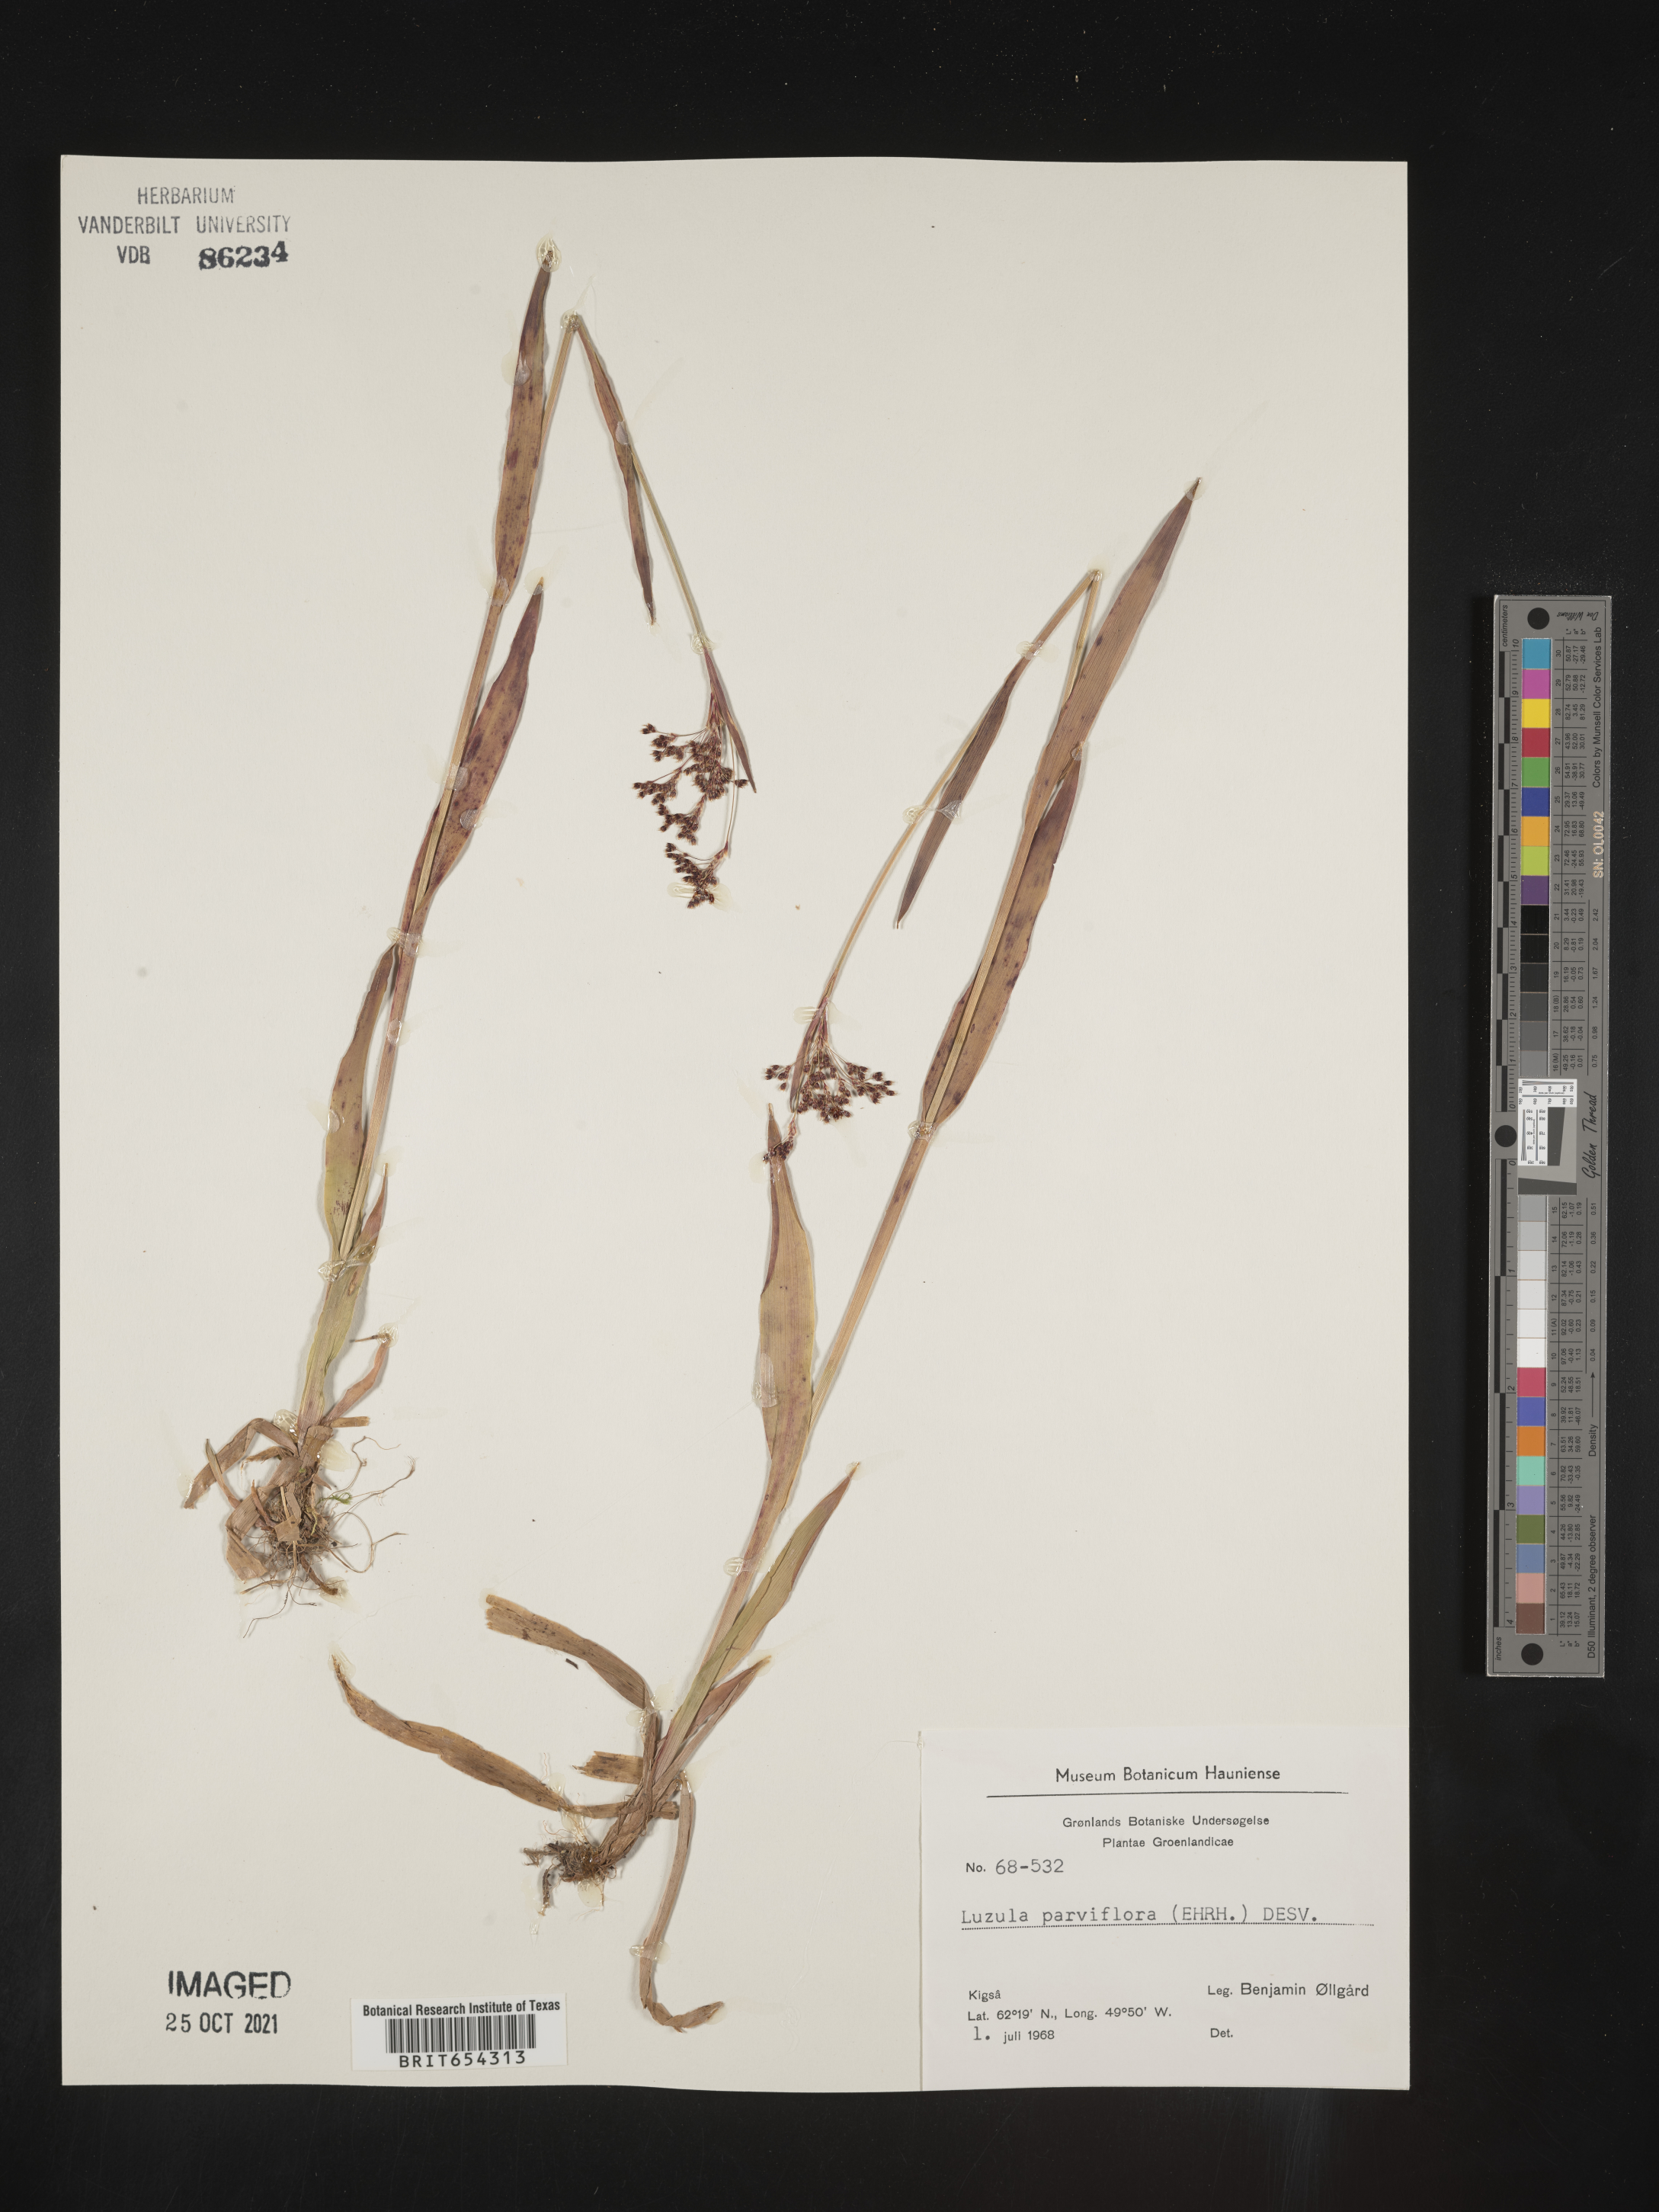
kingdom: Plantae
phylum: Tracheophyta
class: Liliopsida
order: Poales
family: Juncaceae
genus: Luzula
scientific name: Luzula
